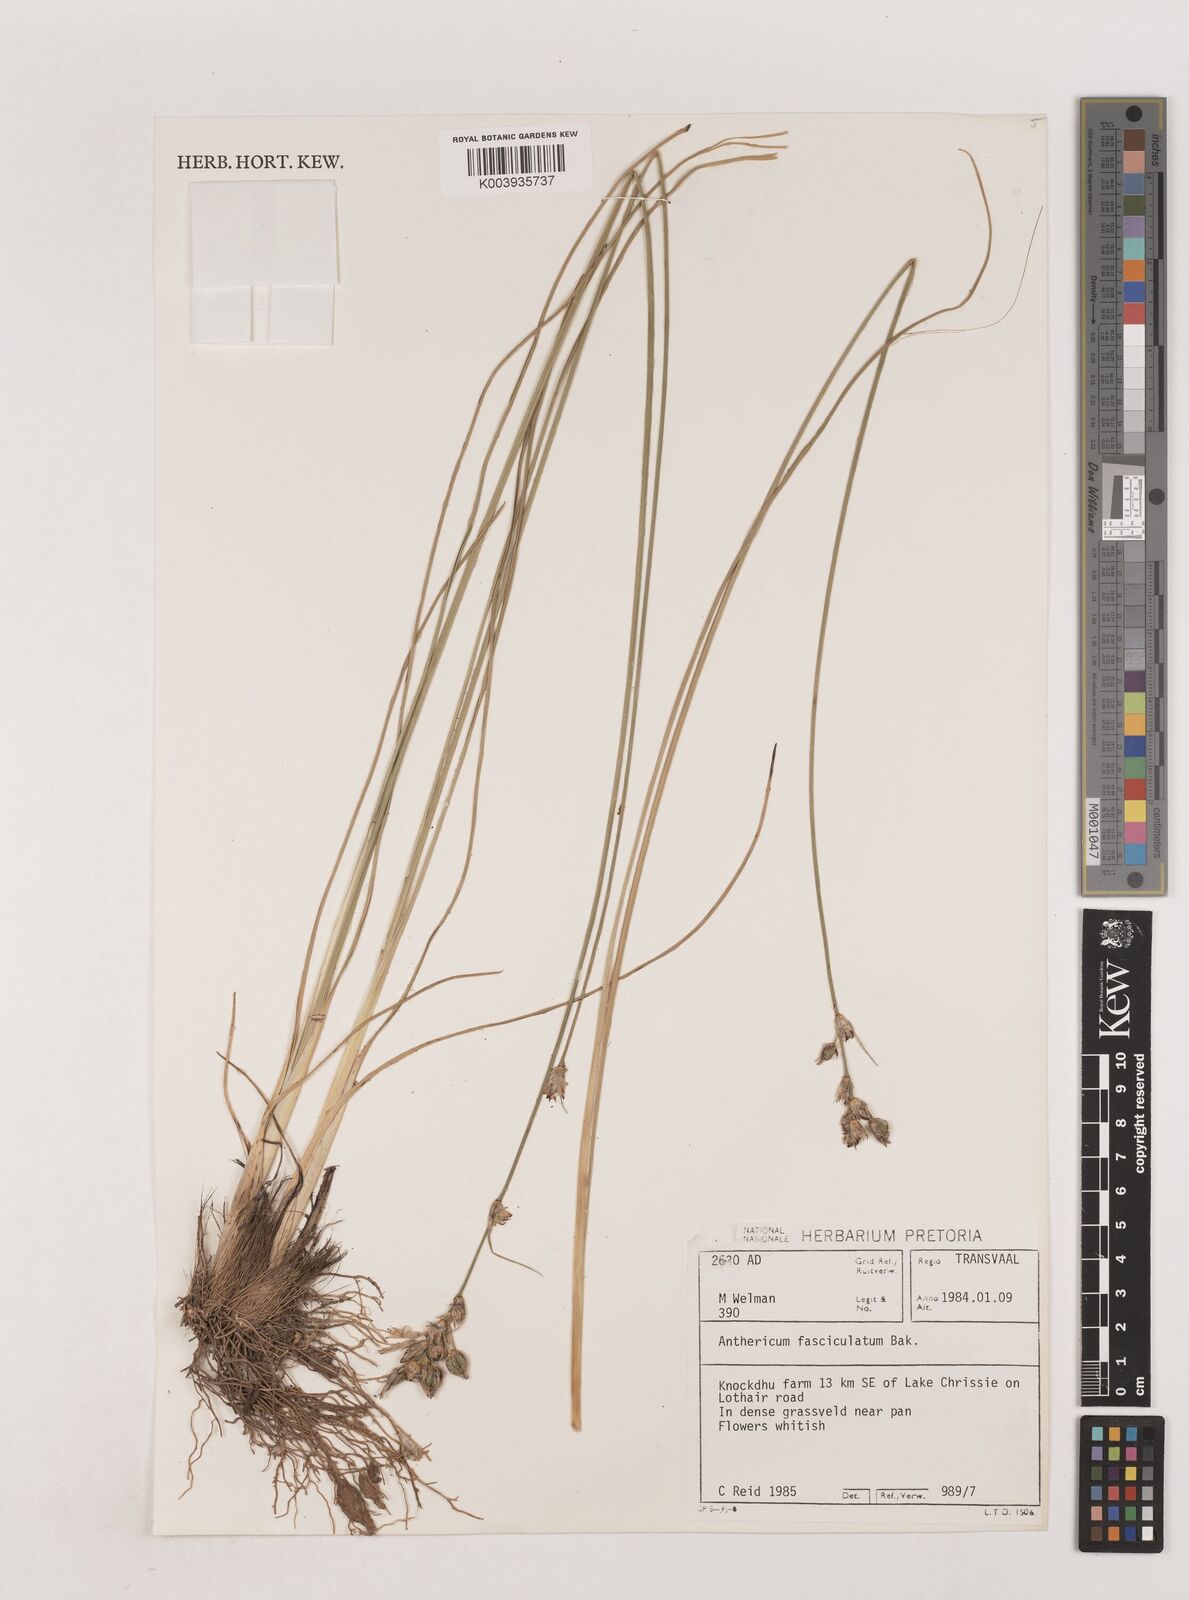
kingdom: Plantae
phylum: Tracheophyta
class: Liliopsida
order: Asparagales
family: Asparagaceae
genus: Chlorophytum
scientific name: Chlorophytum fasciculatum
